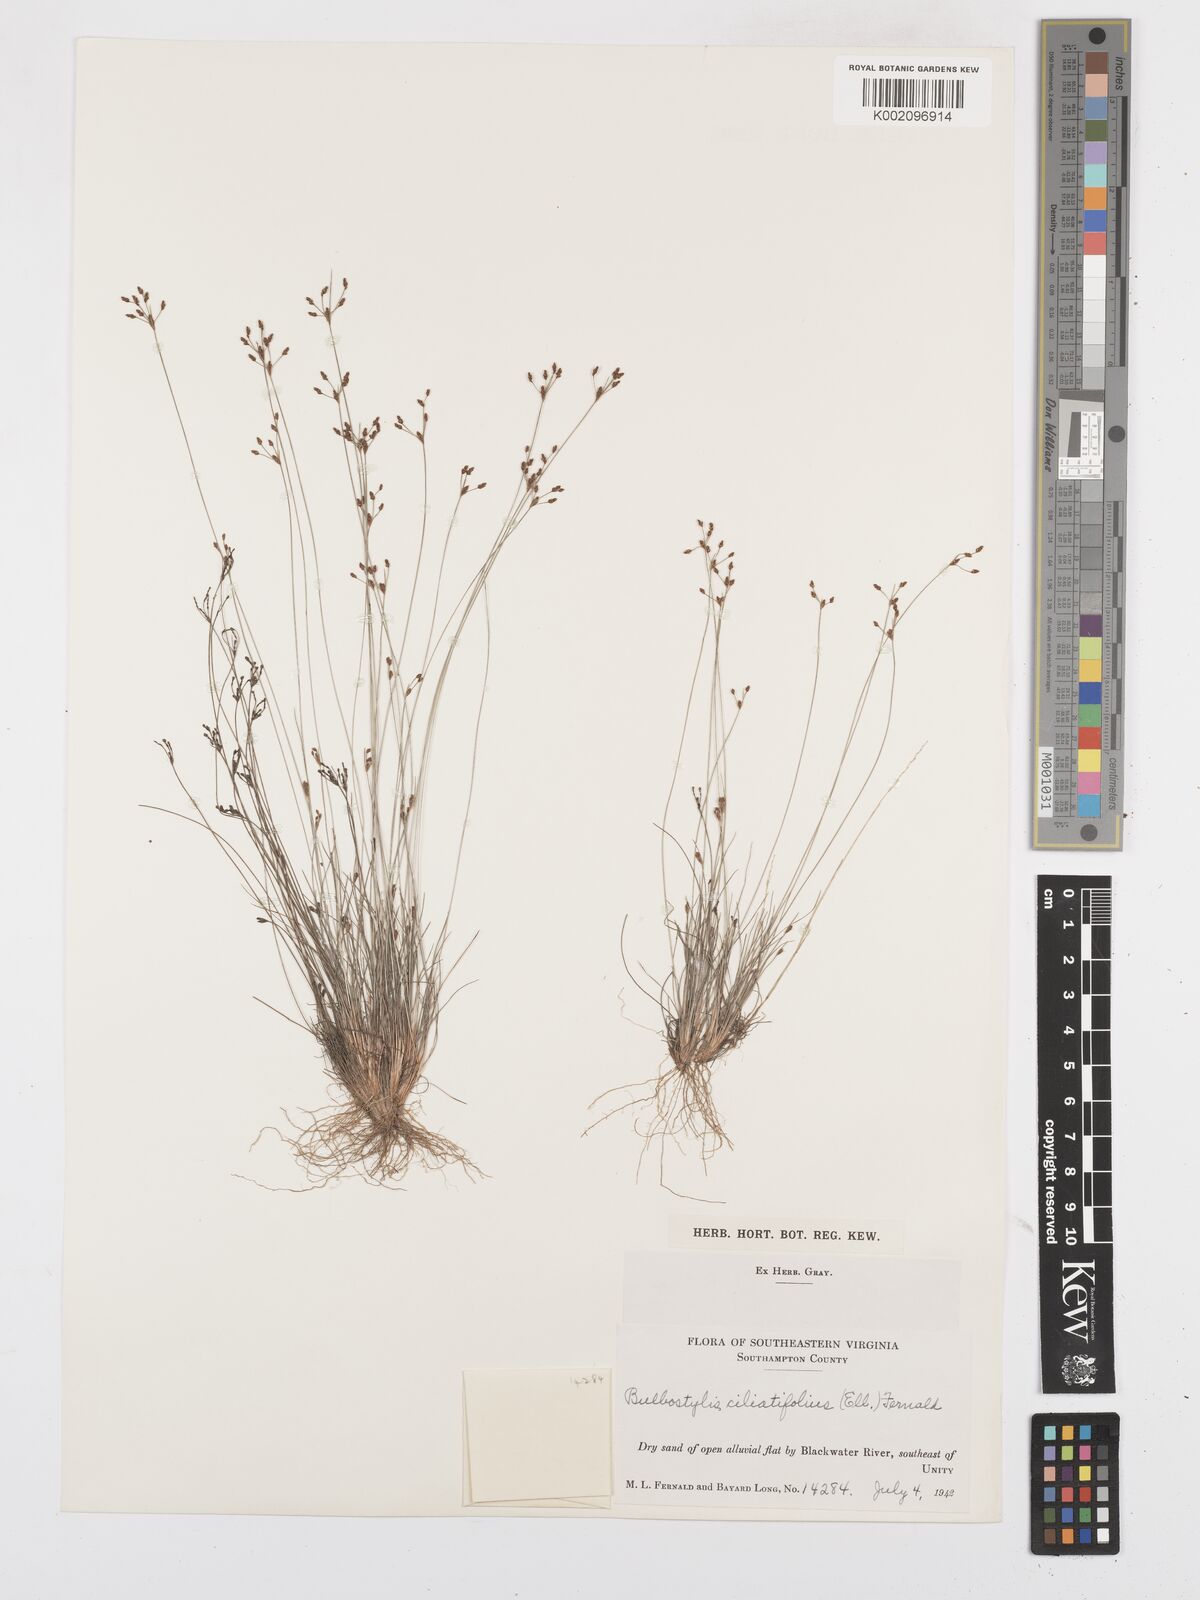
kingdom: Plantae
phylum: Tracheophyta
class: Liliopsida
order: Poales
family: Cyperaceae
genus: Bulbostylis
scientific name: Bulbostylis ciliatifolia
